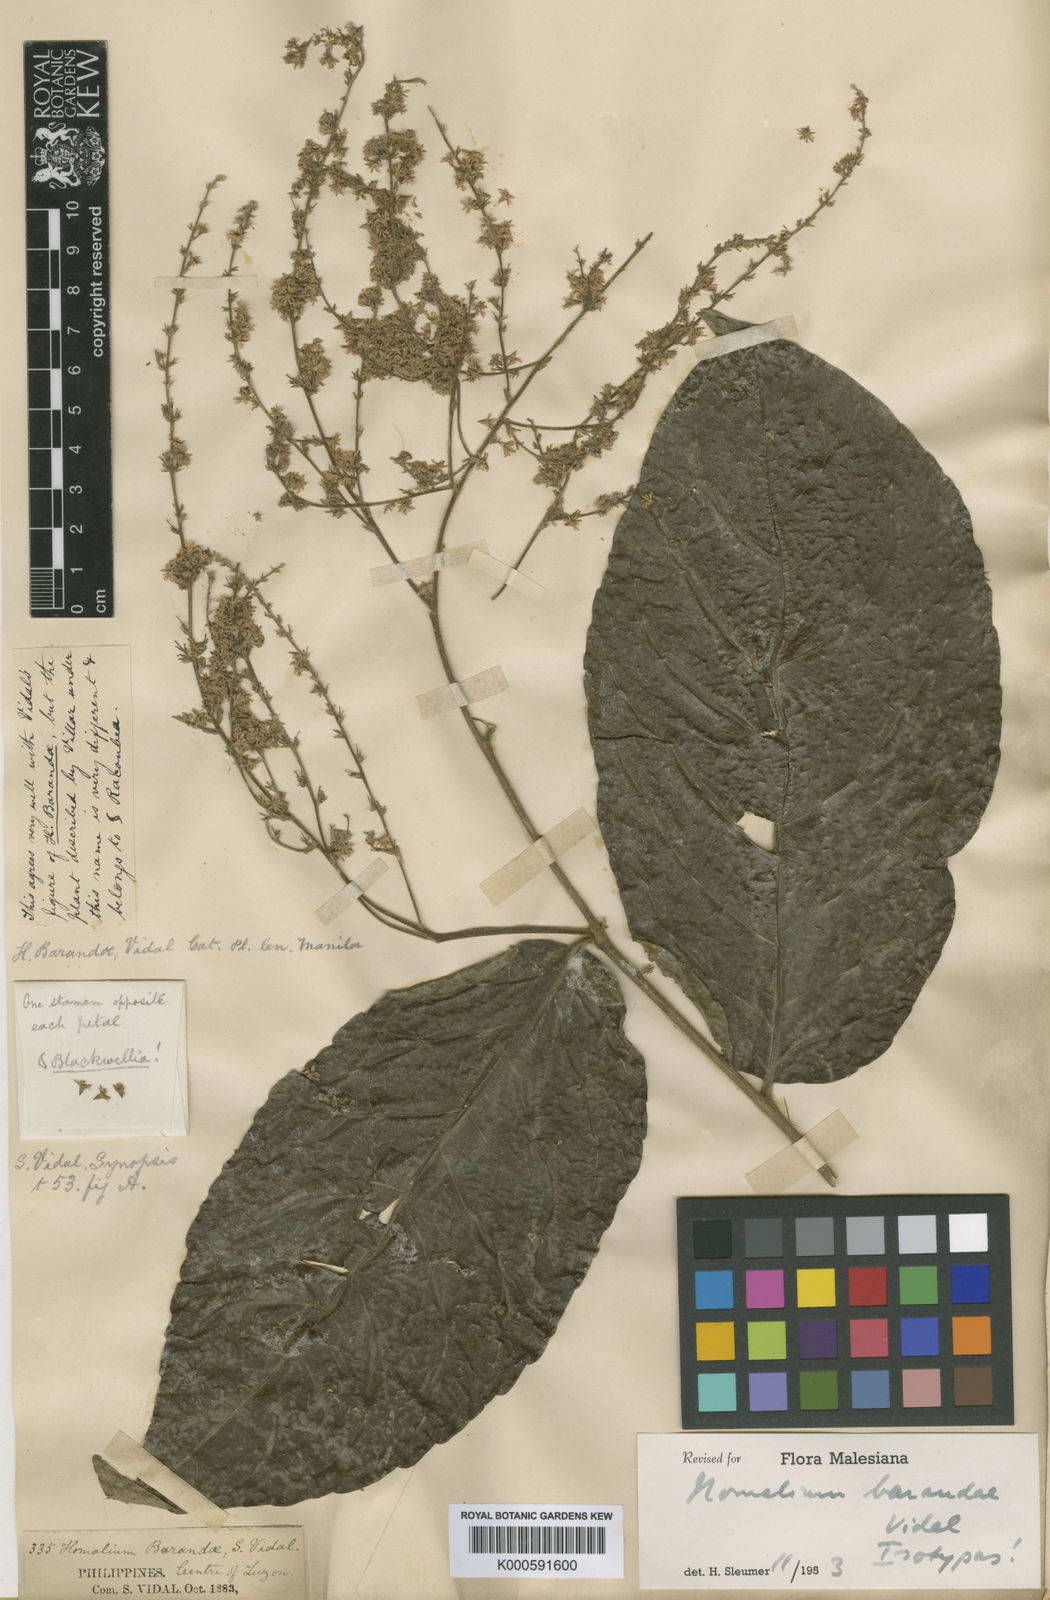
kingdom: Plantae
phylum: Tracheophyta
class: Magnoliopsida
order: Malpighiales
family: Salicaceae
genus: Homalium
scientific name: Homalium barandae
